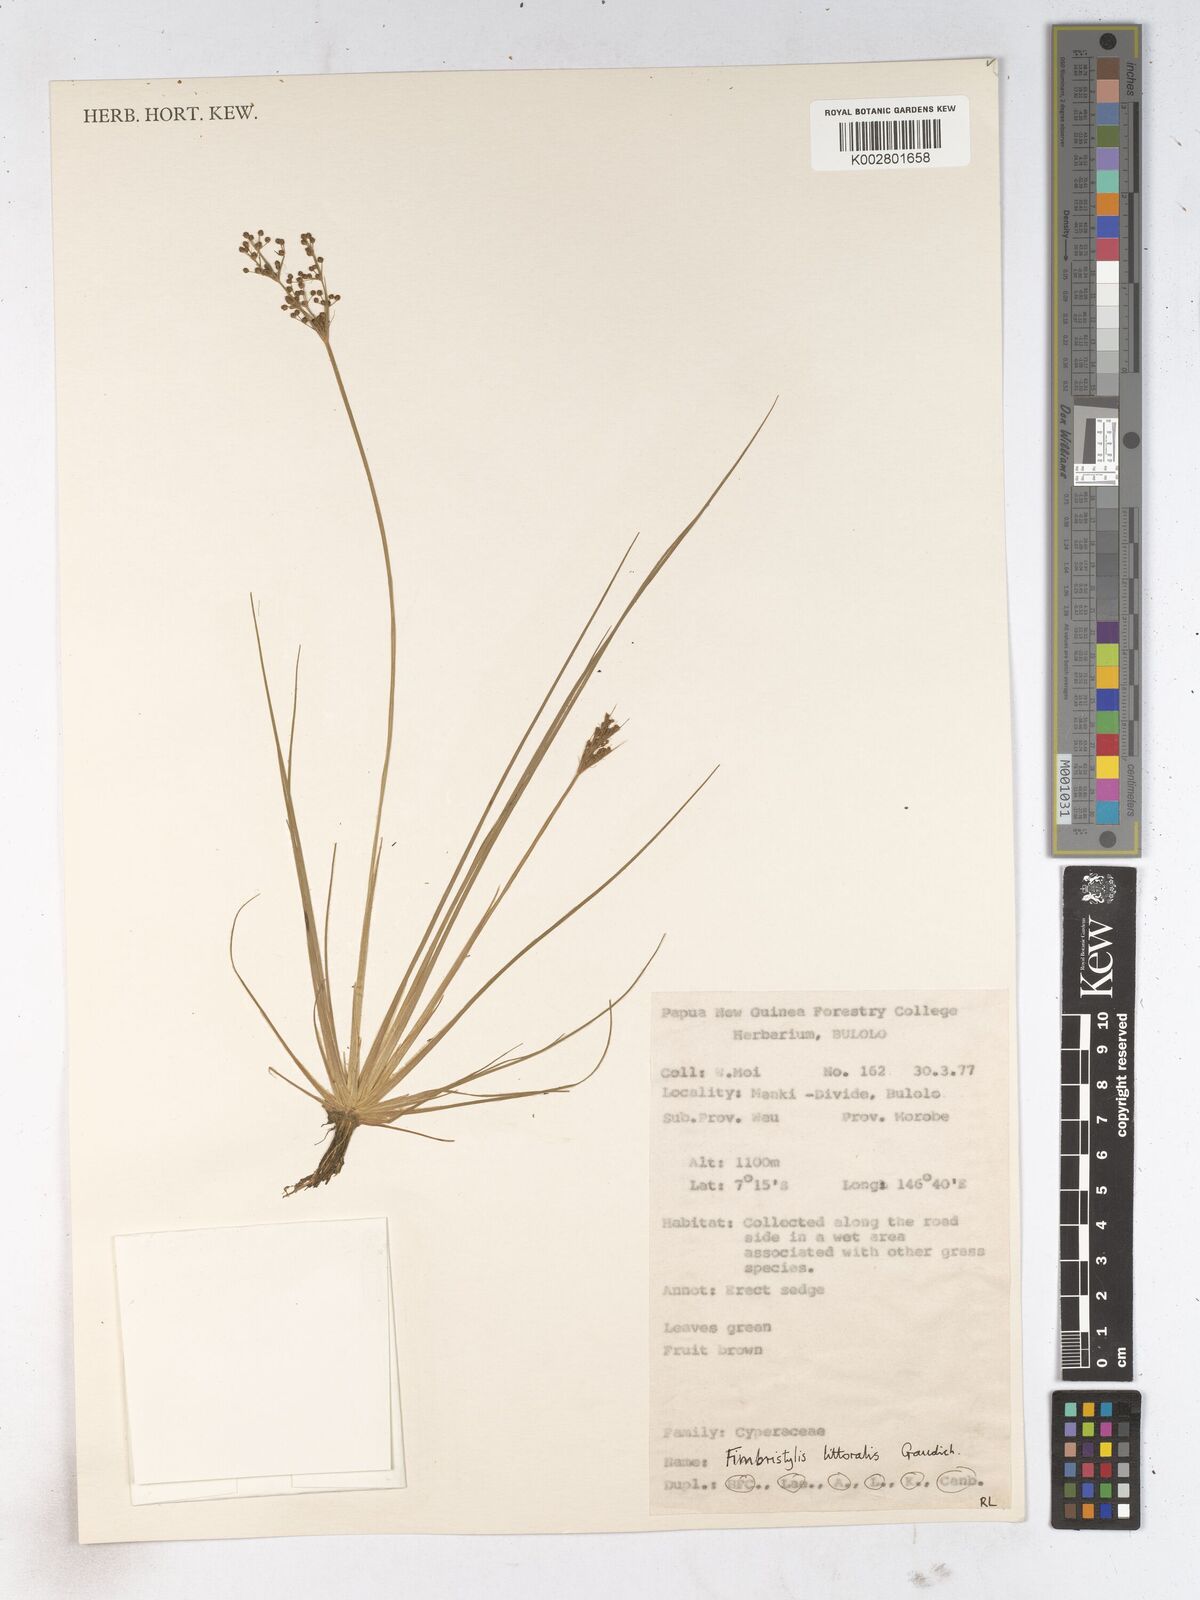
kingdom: Plantae
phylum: Tracheophyta
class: Liliopsida
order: Poales
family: Cyperaceae
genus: Fimbristylis
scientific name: Fimbristylis littoralis
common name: Fimbry
